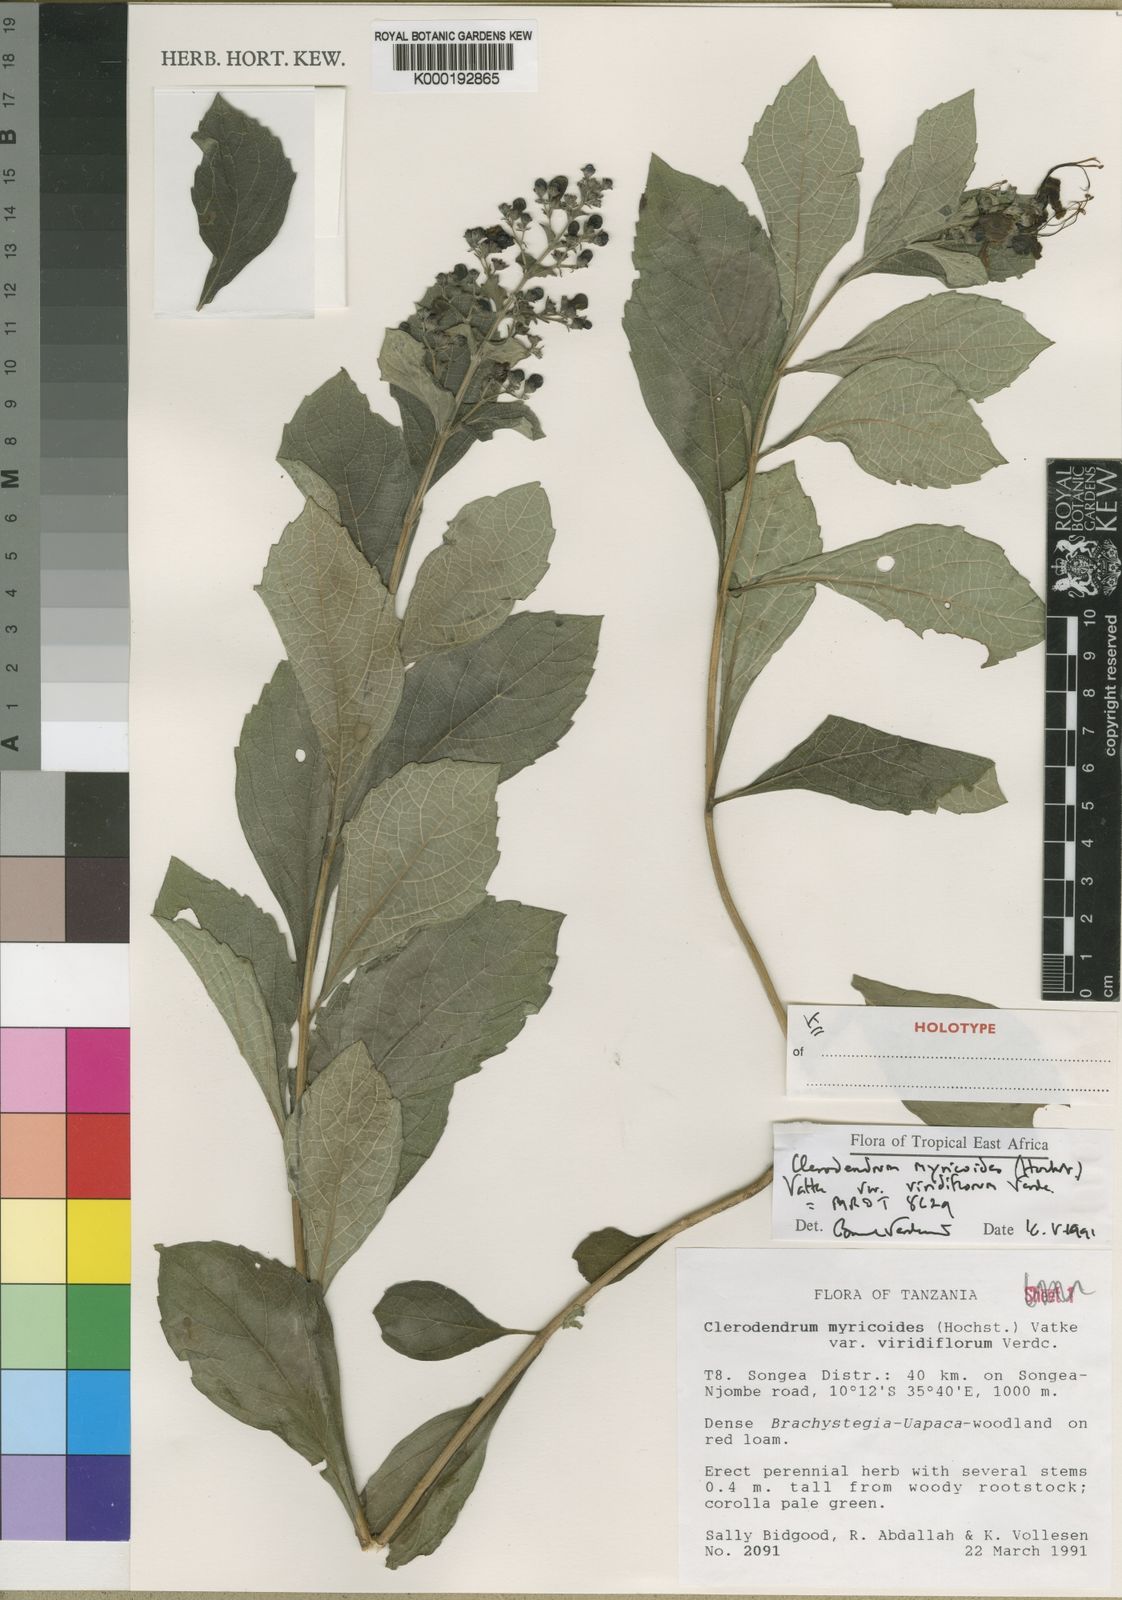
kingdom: Plantae
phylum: Tracheophyta
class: Magnoliopsida
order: Lamiales
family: Lamiaceae
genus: Rotheca
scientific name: Rotheca myricoides
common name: Cats-whiskers
